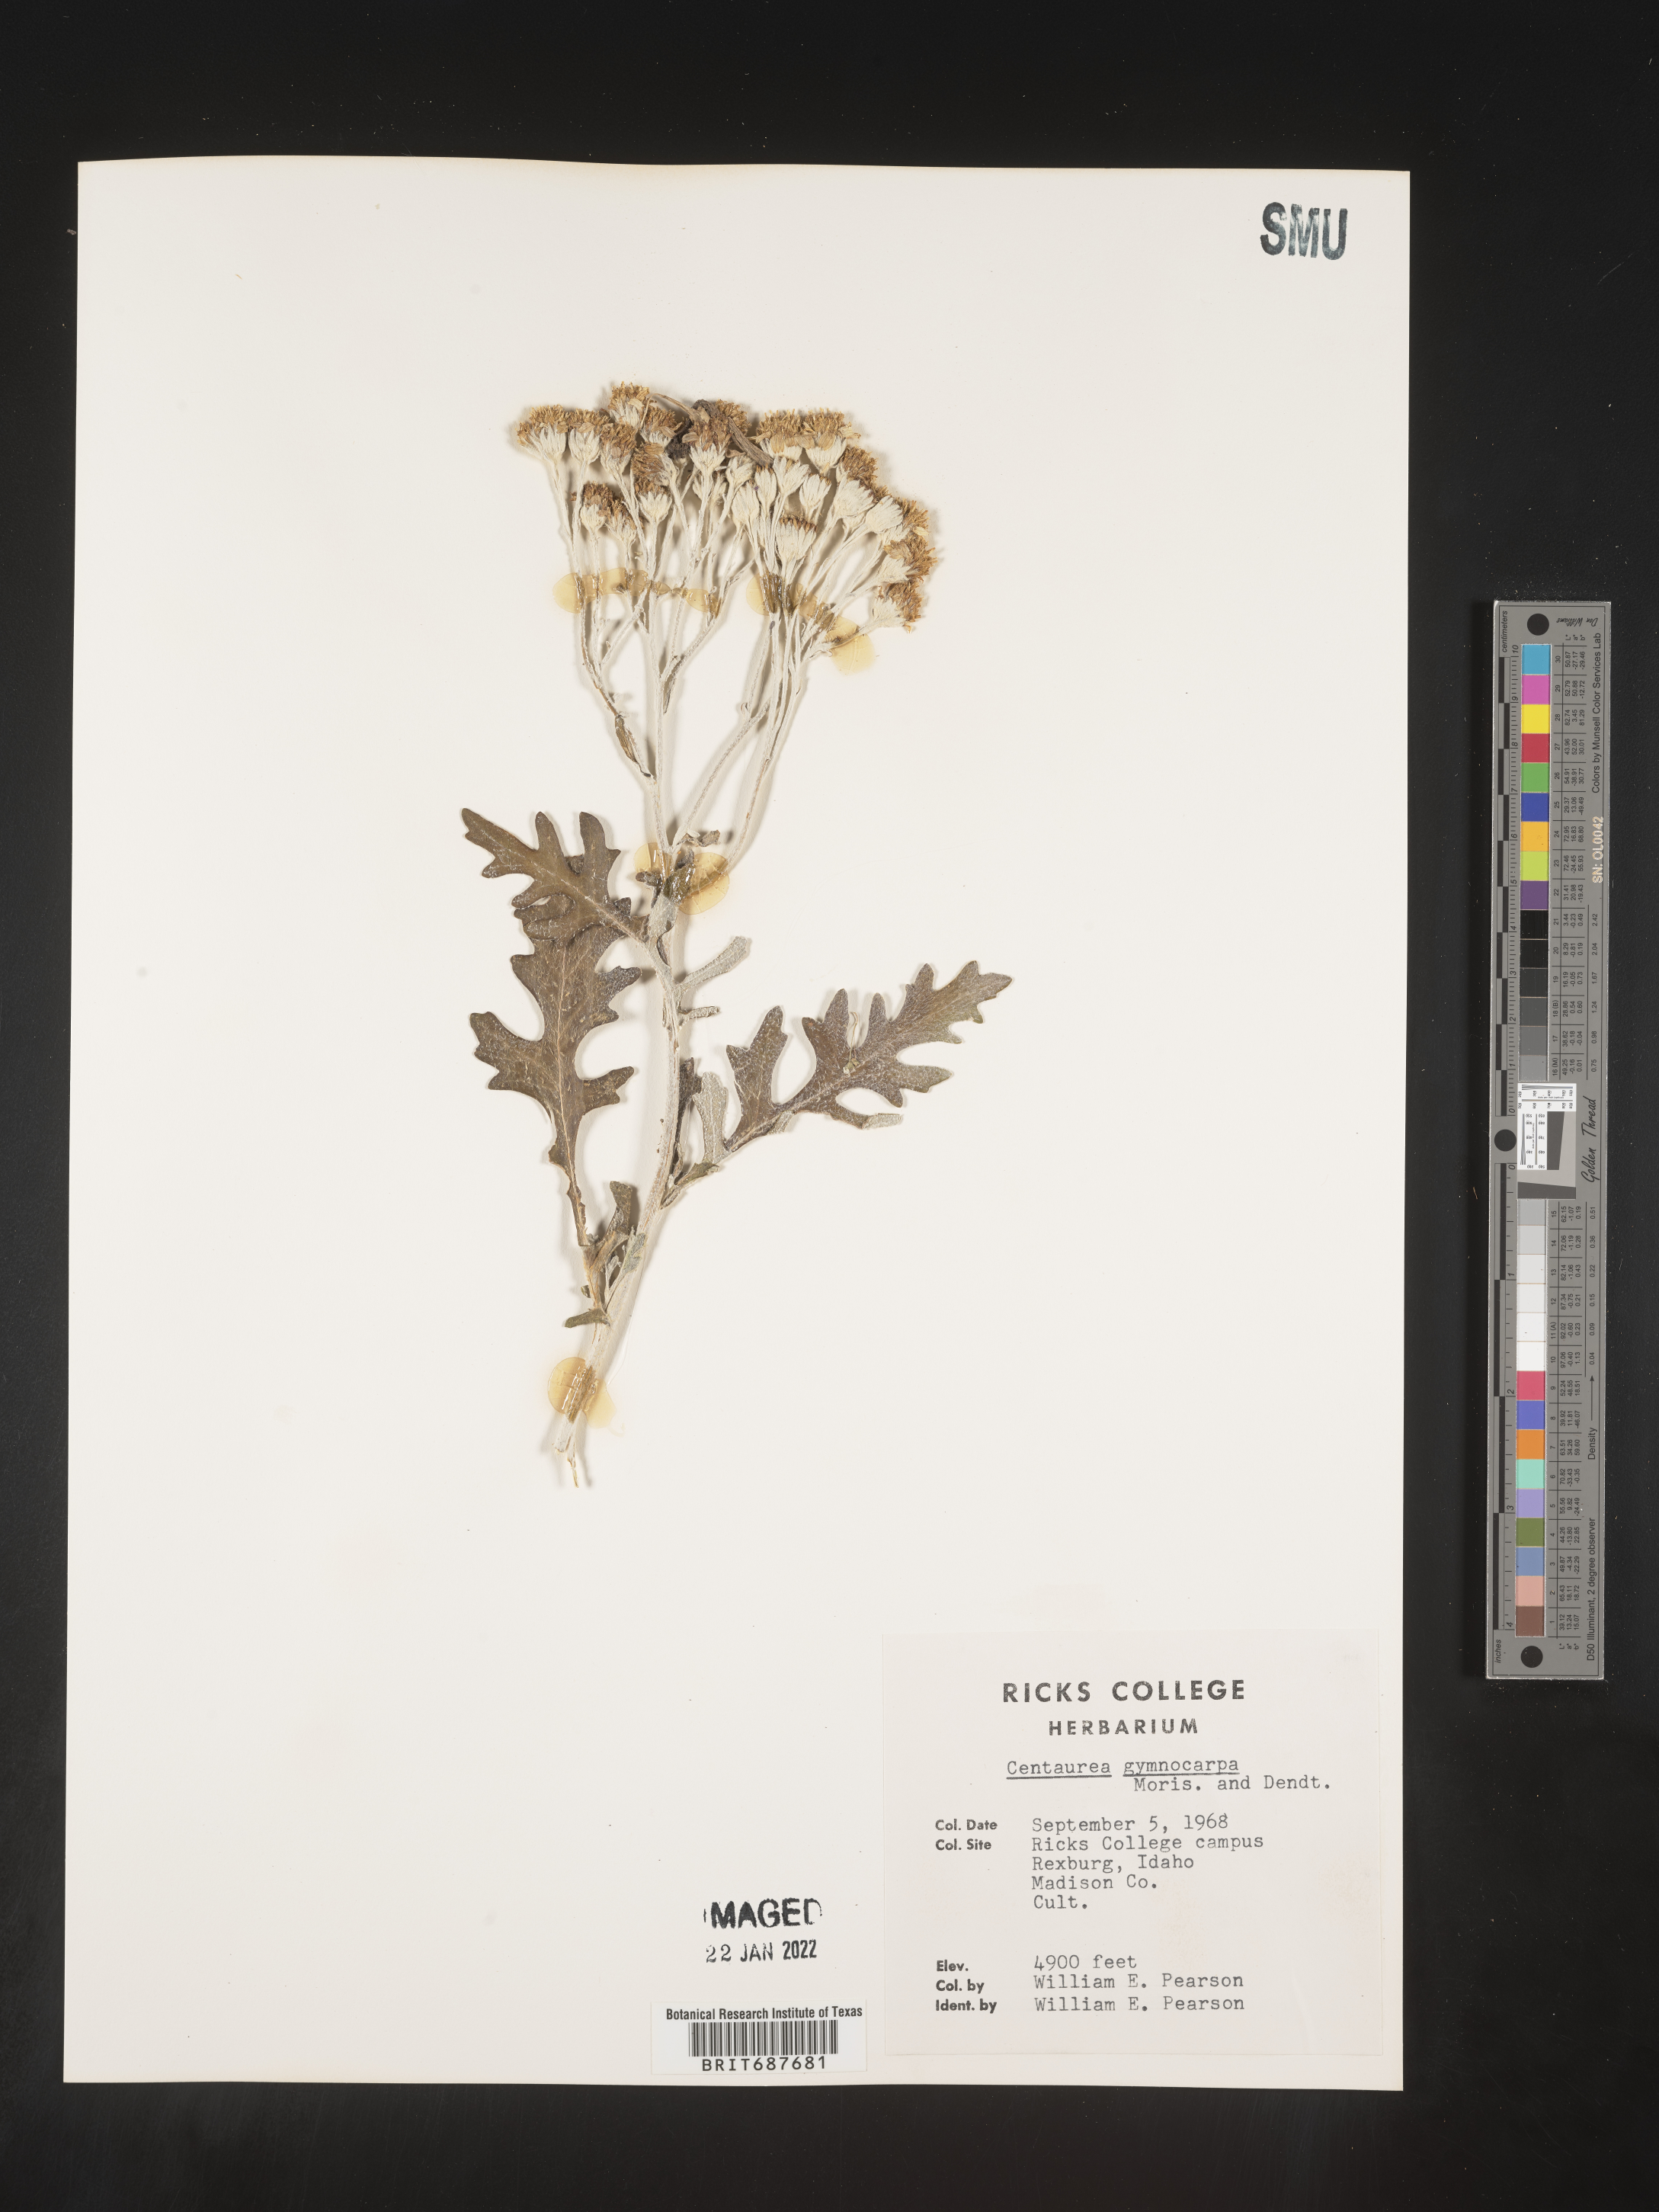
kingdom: Plantae
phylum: Tracheophyta
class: Magnoliopsida
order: Asterales
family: Asteraceae
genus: Centaurea
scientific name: Centaurea
